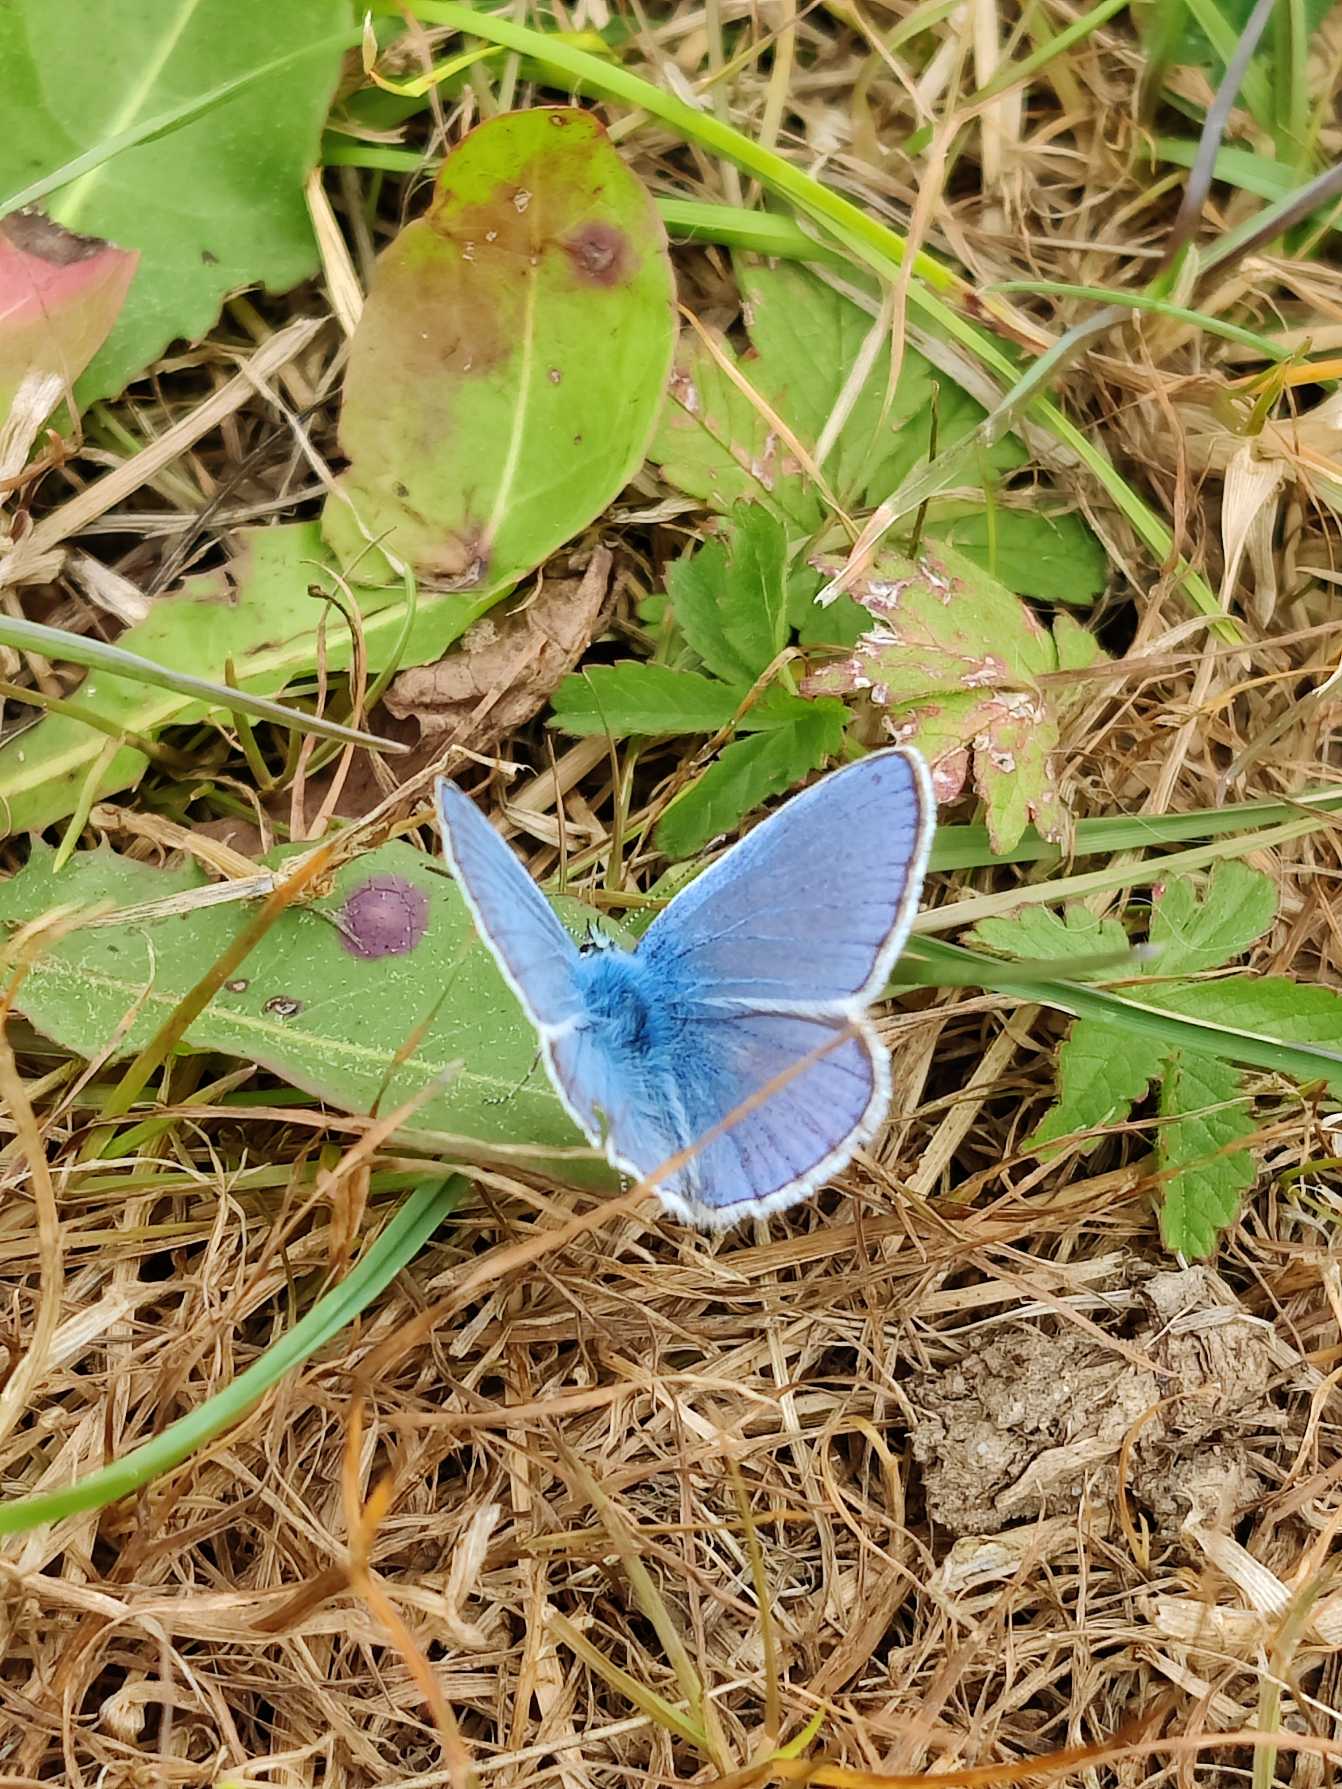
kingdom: Animalia
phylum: Arthropoda
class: Insecta
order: Lepidoptera
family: Lycaenidae
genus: Polyommatus
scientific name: Polyommatus icarus
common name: Almindelig blåfugl
